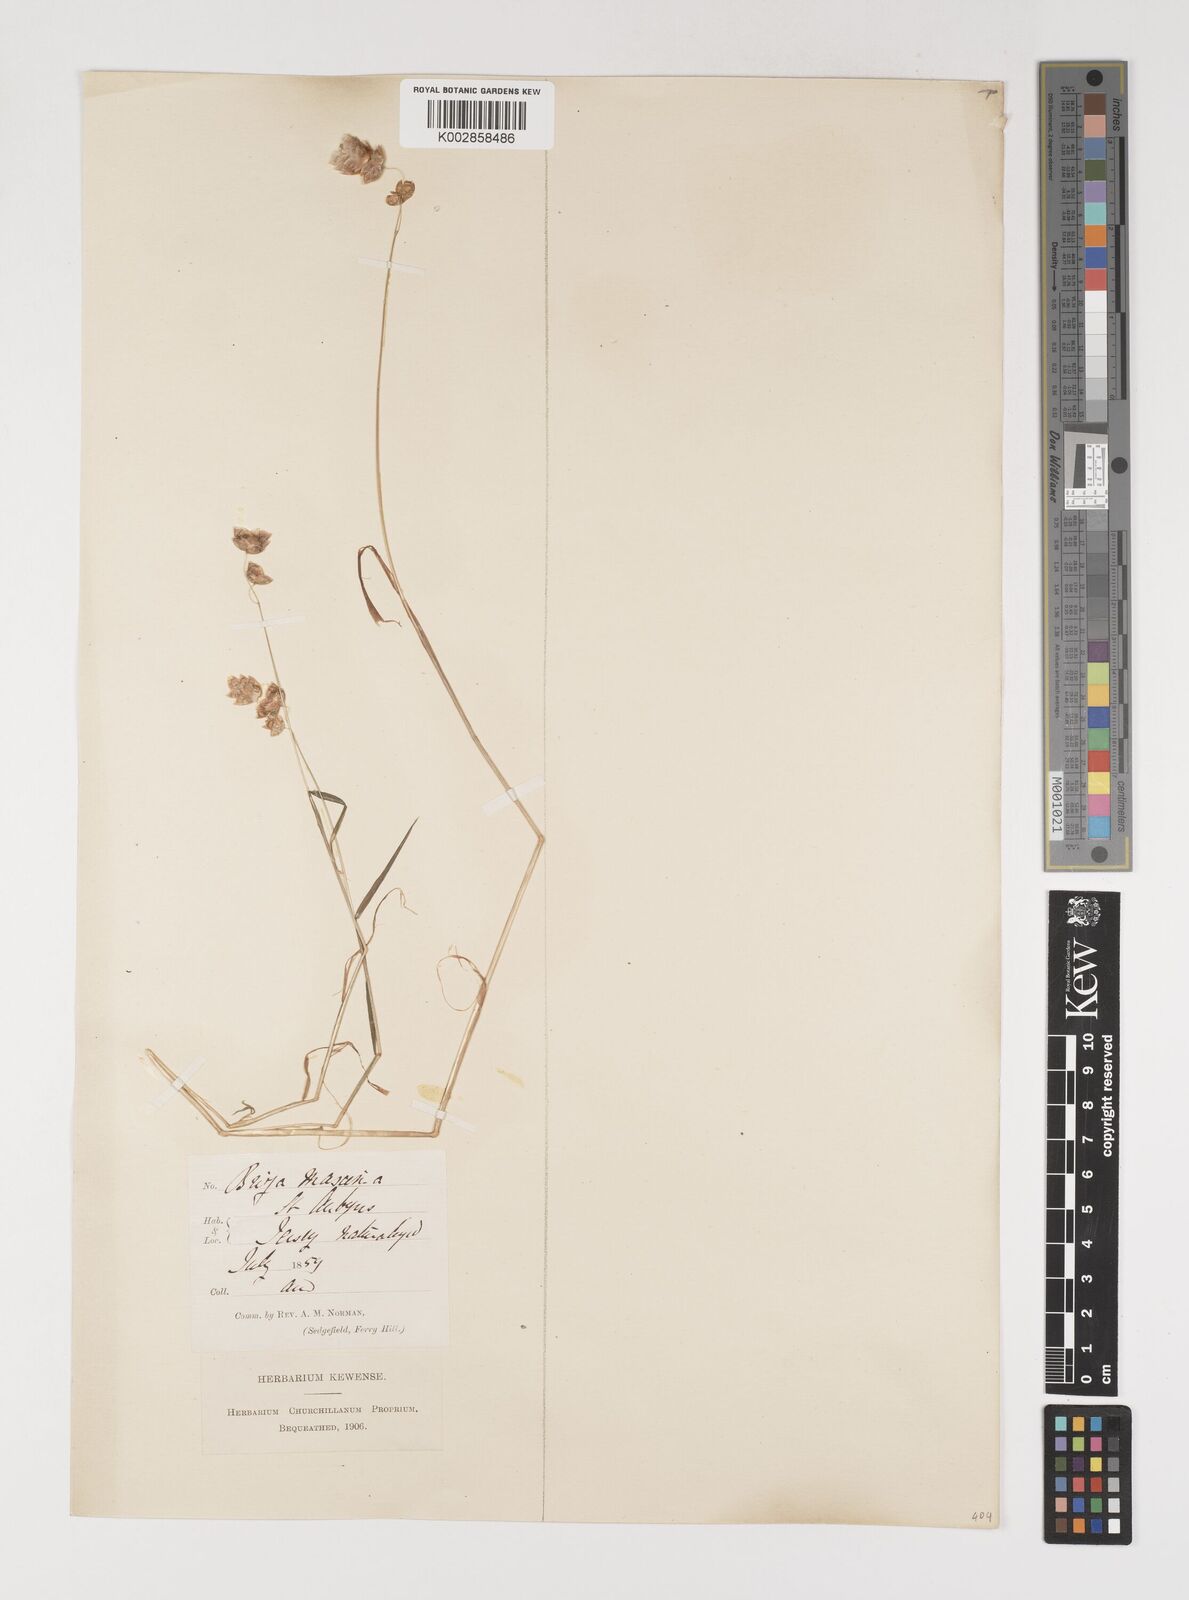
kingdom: Plantae
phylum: Tracheophyta
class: Liliopsida
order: Poales
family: Poaceae
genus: Briza
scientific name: Briza maxima
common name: Big quakinggrass
